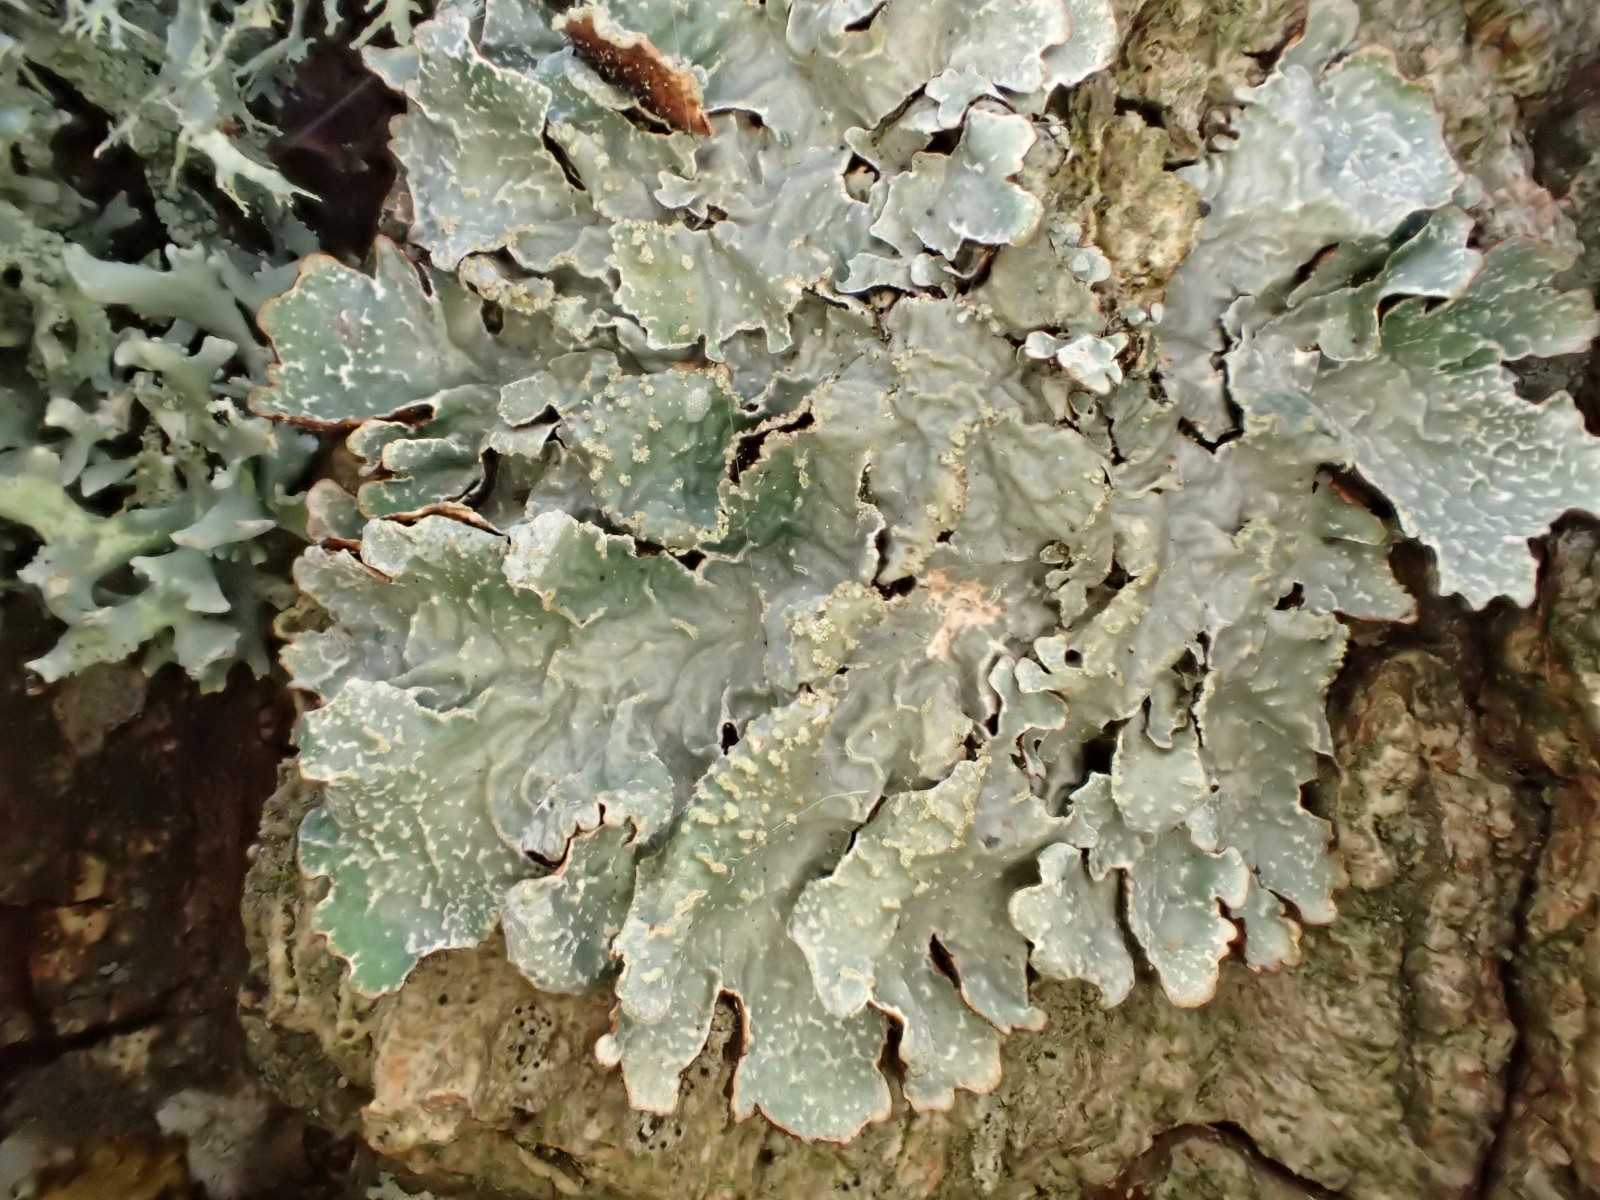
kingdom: Fungi
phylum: Ascomycota
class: Lecanoromycetes
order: Lecanorales
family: Parmeliaceae
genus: Parmelia
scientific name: Parmelia sulcata
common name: rynket skållav
